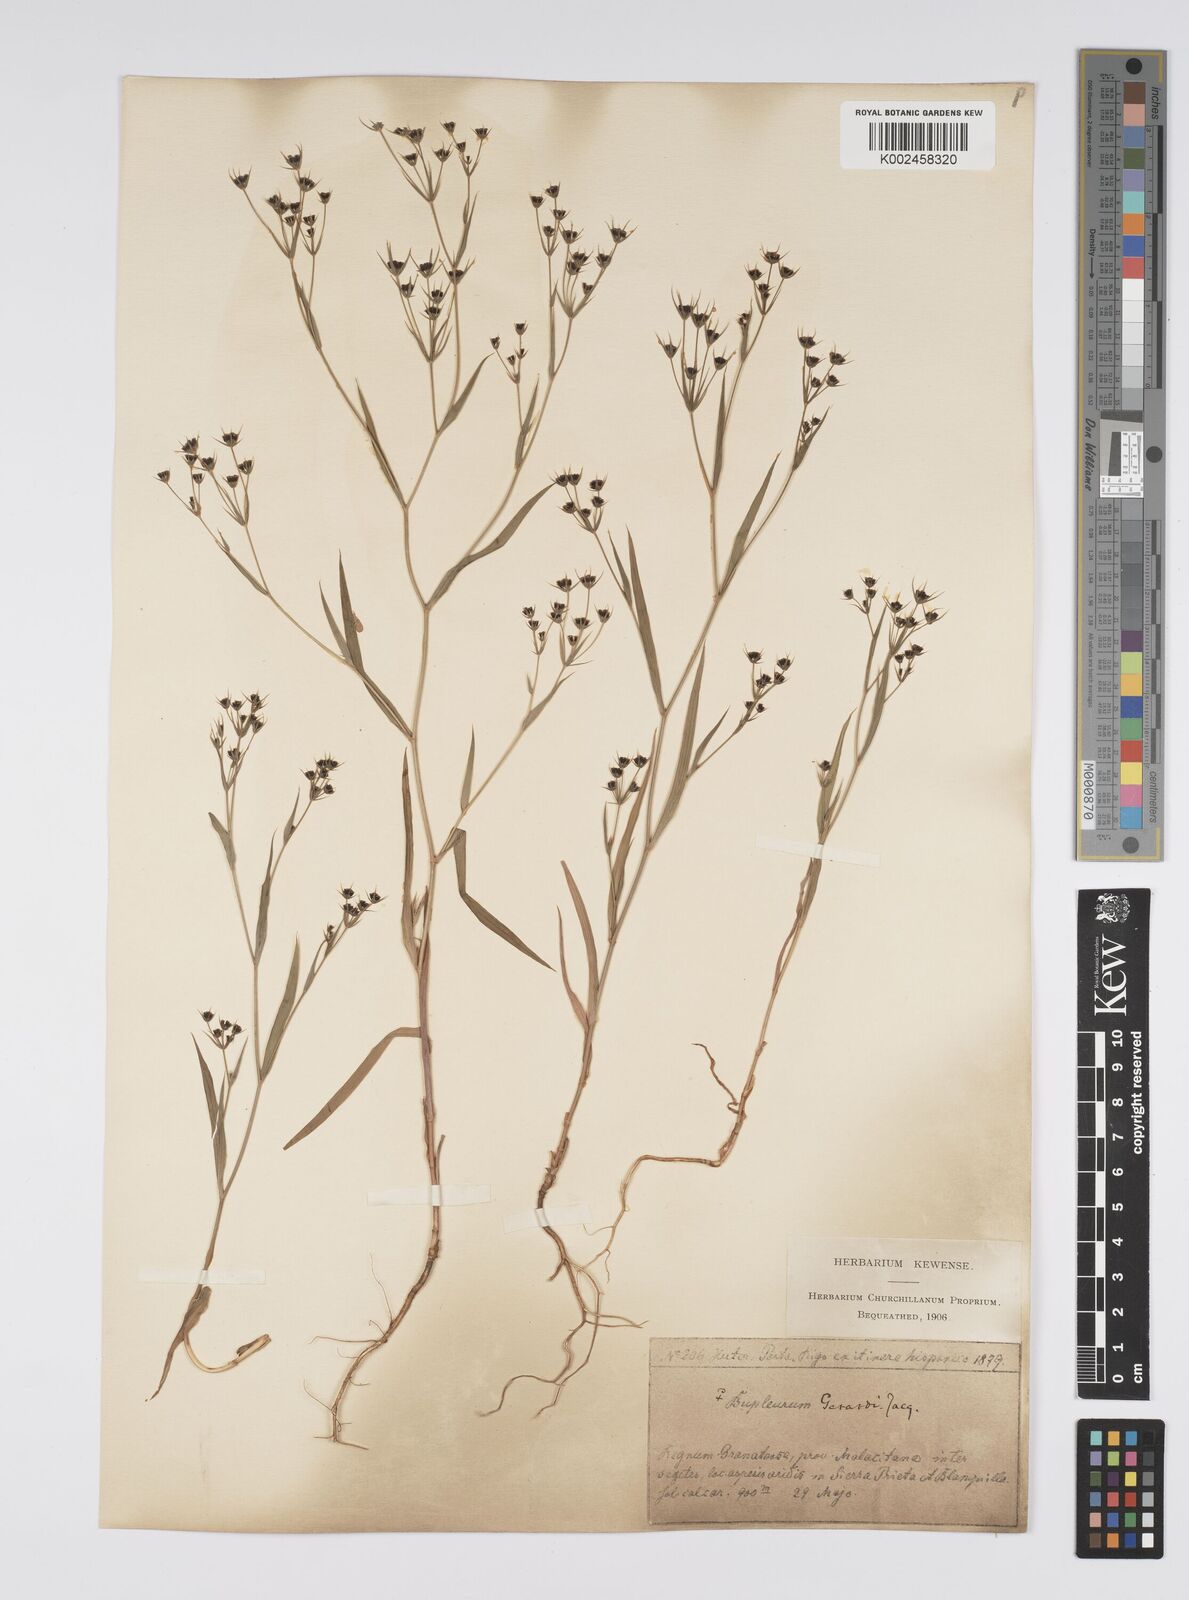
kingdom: Plantae
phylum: Tracheophyta
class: Magnoliopsida
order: Apiales
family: Apiaceae
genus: Bupleurum
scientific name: Bupleurum gerardi
